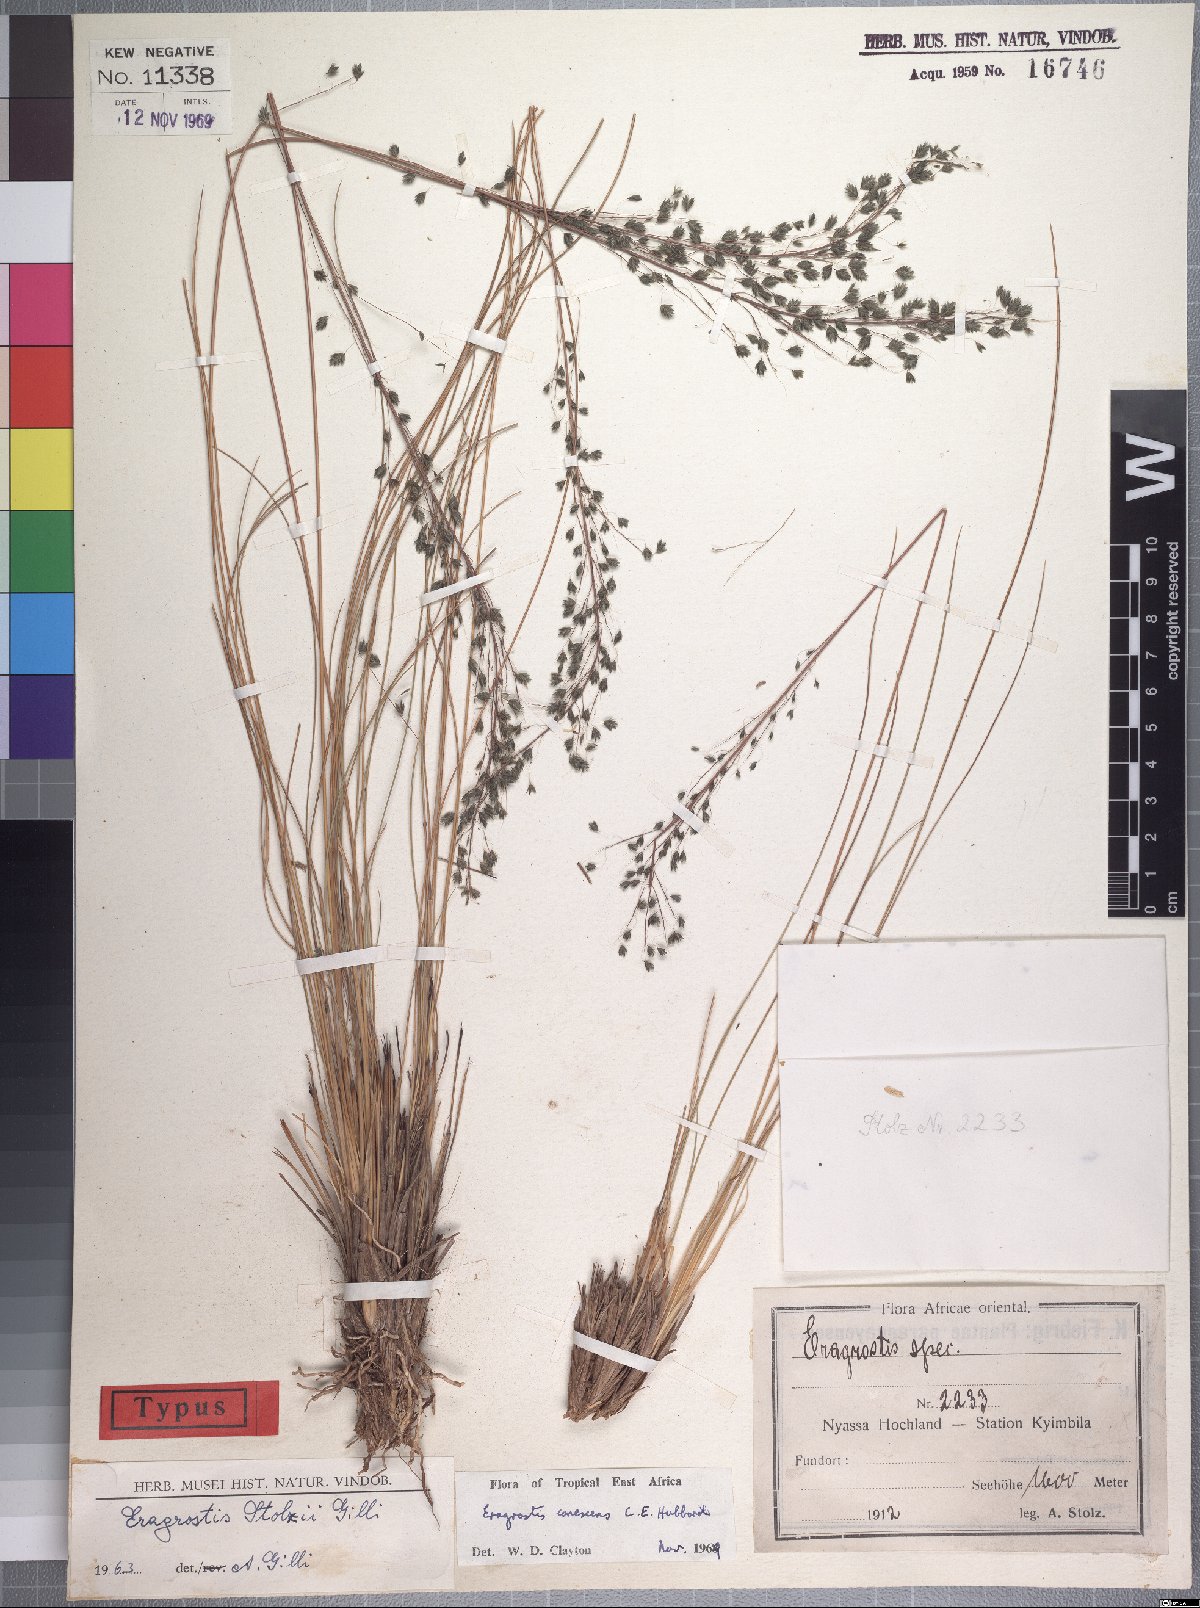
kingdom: Plantae
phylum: Tracheophyta
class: Liliopsida
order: Poales
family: Poaceae
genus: Eragrostis
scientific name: Eragrostis canescens
